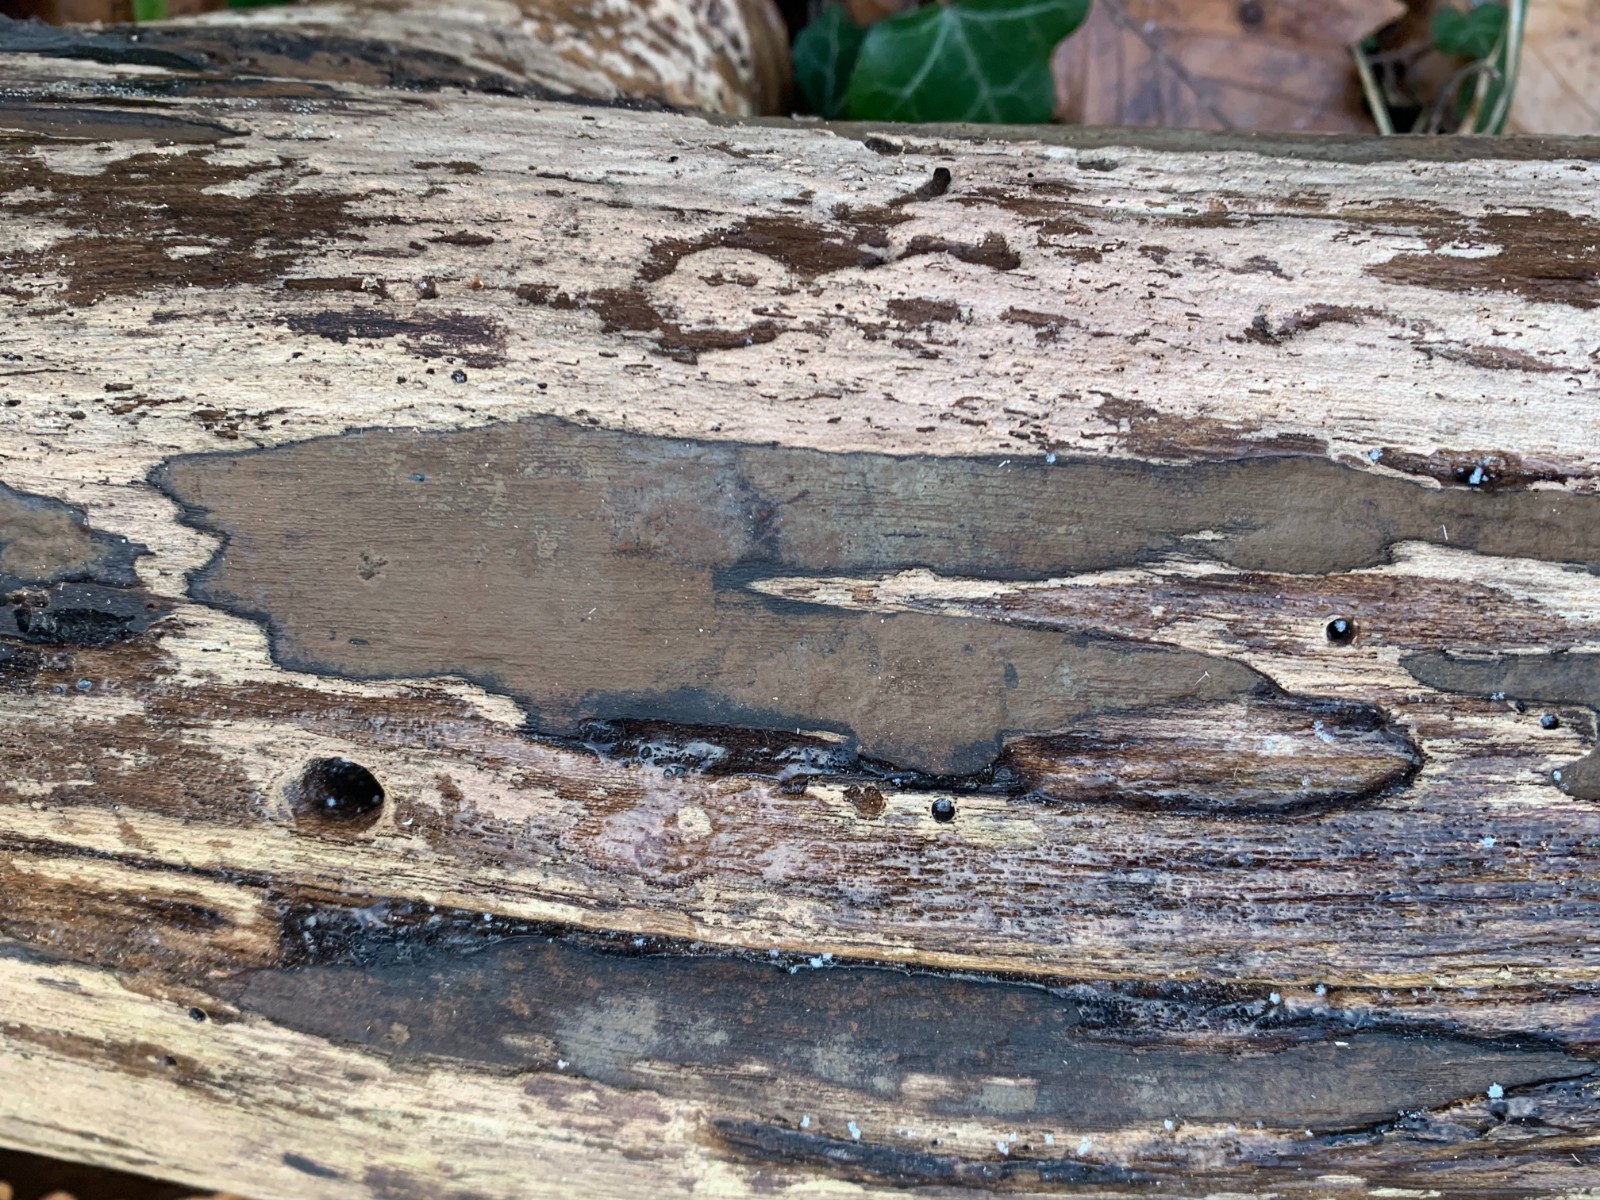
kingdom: Fungi
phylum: Ascomycota
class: Sordariomycetes
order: Xylariales
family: Hypoxylaceae
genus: Hypoxylon
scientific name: Hypoxylon petriniae
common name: nedsænket kulbær
